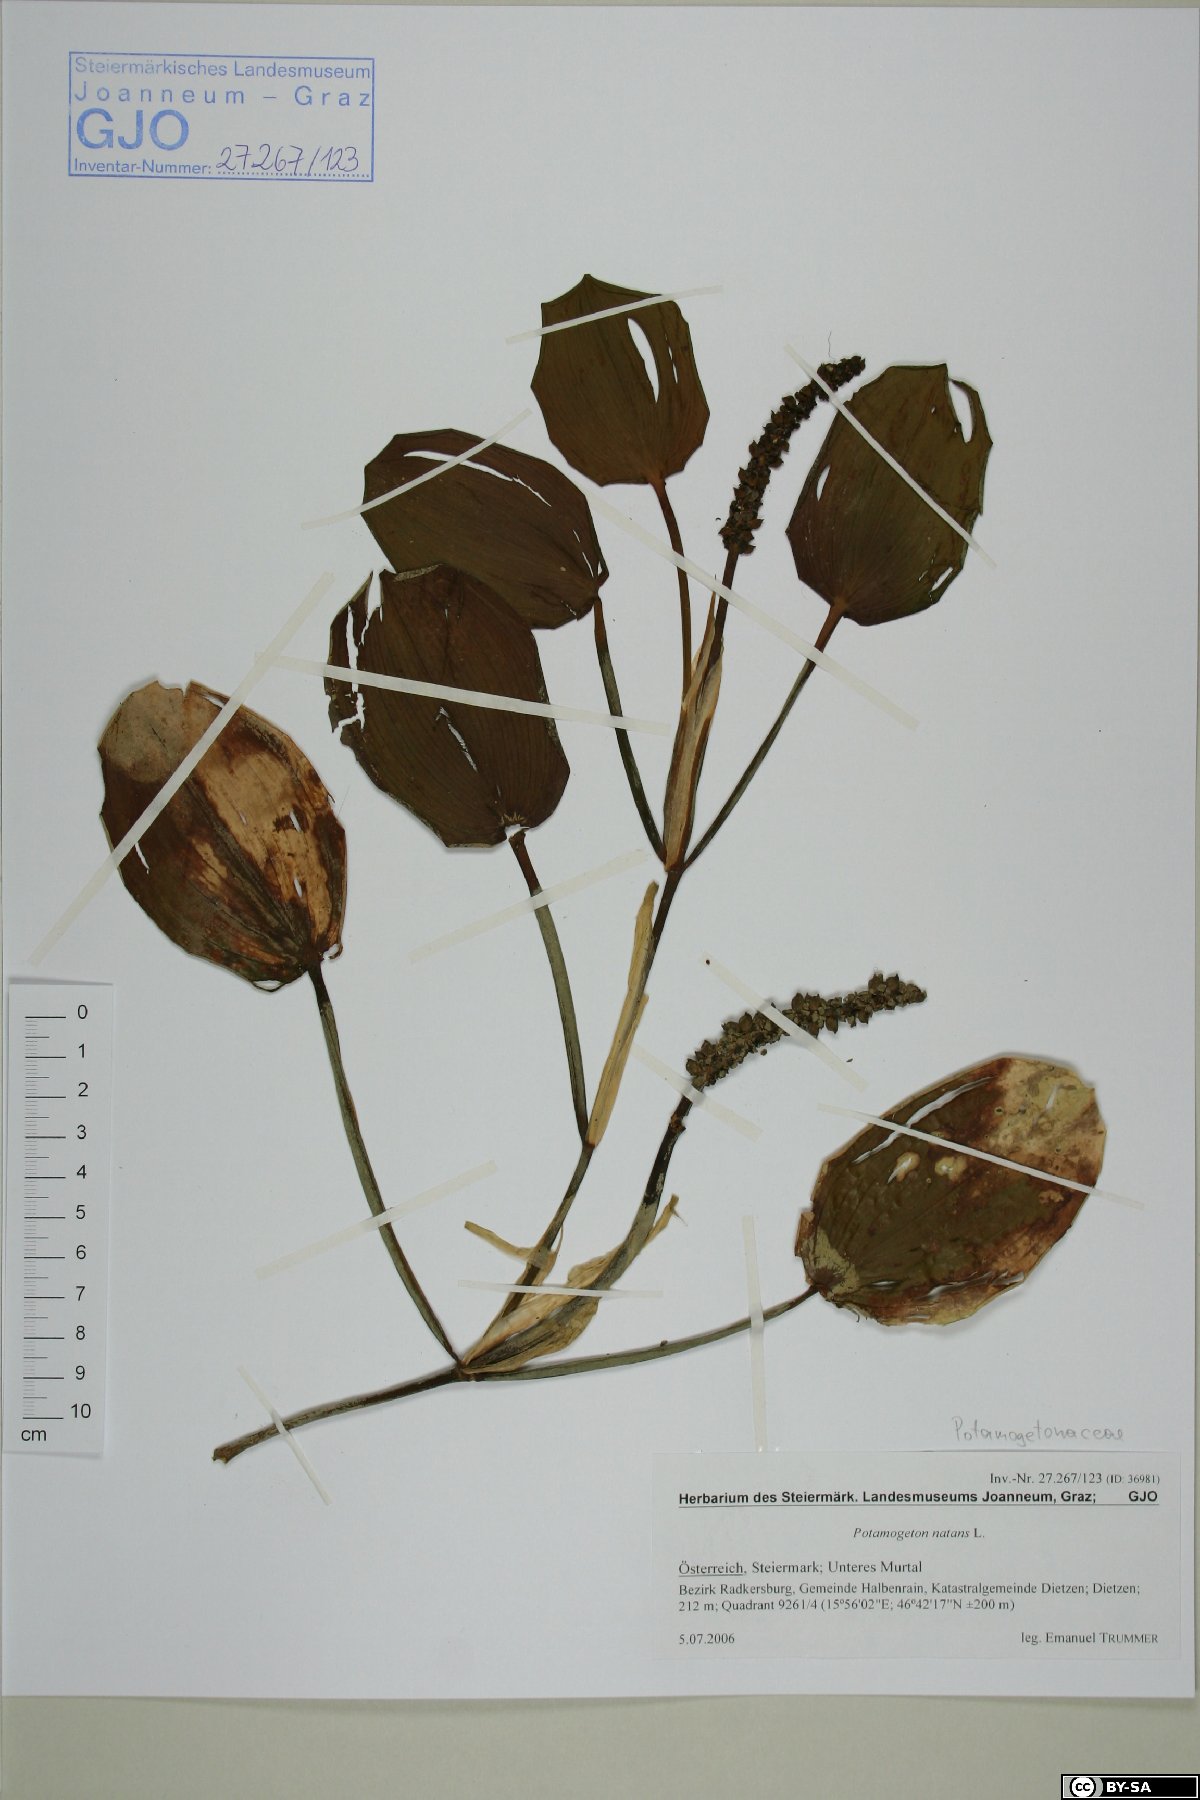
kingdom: Plantae
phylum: Tracheophyta
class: Liliopsida
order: Alismatales
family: Potamogetonaceae
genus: Potamogeton
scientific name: Potamogeton natans
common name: Broad-leaved pondweed
